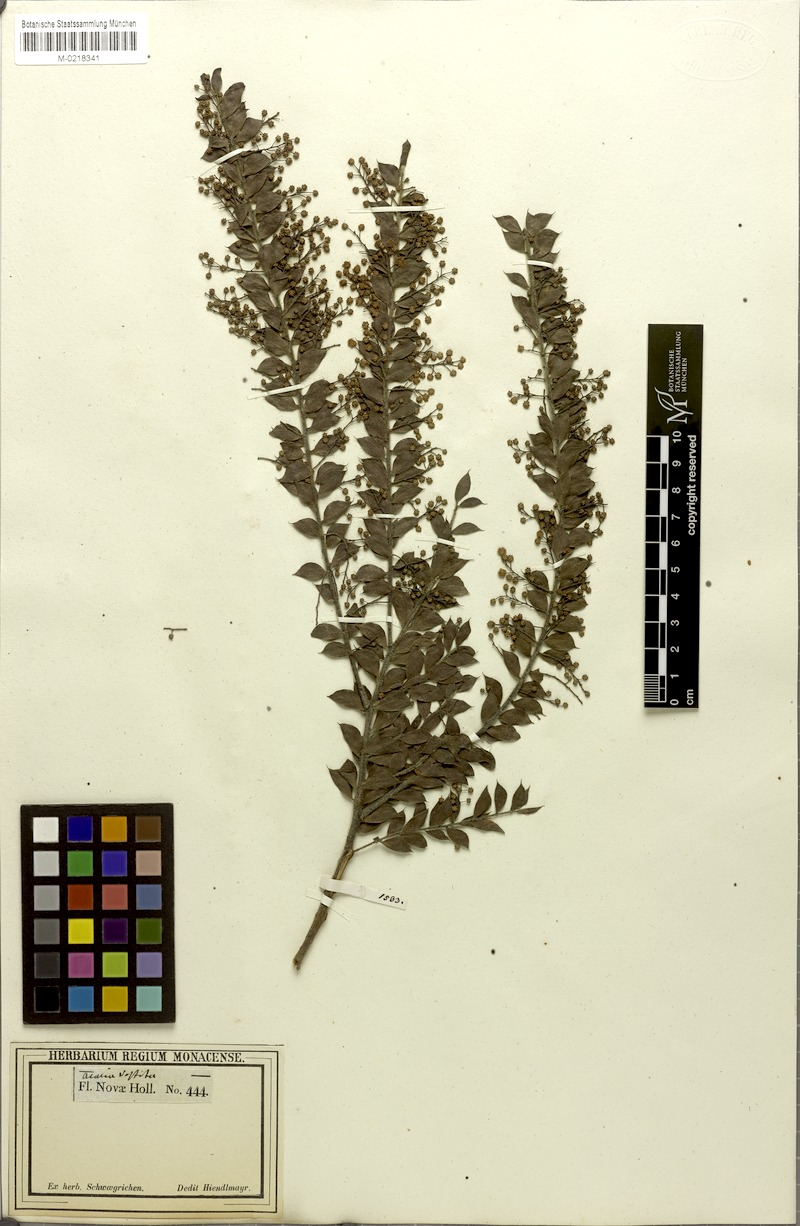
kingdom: Plantae
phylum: Tracheophyta
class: Magnoliopsida
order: Fabales
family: Fabaceae
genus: Acacia
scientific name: Acacia vestita
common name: Hairy wattle
